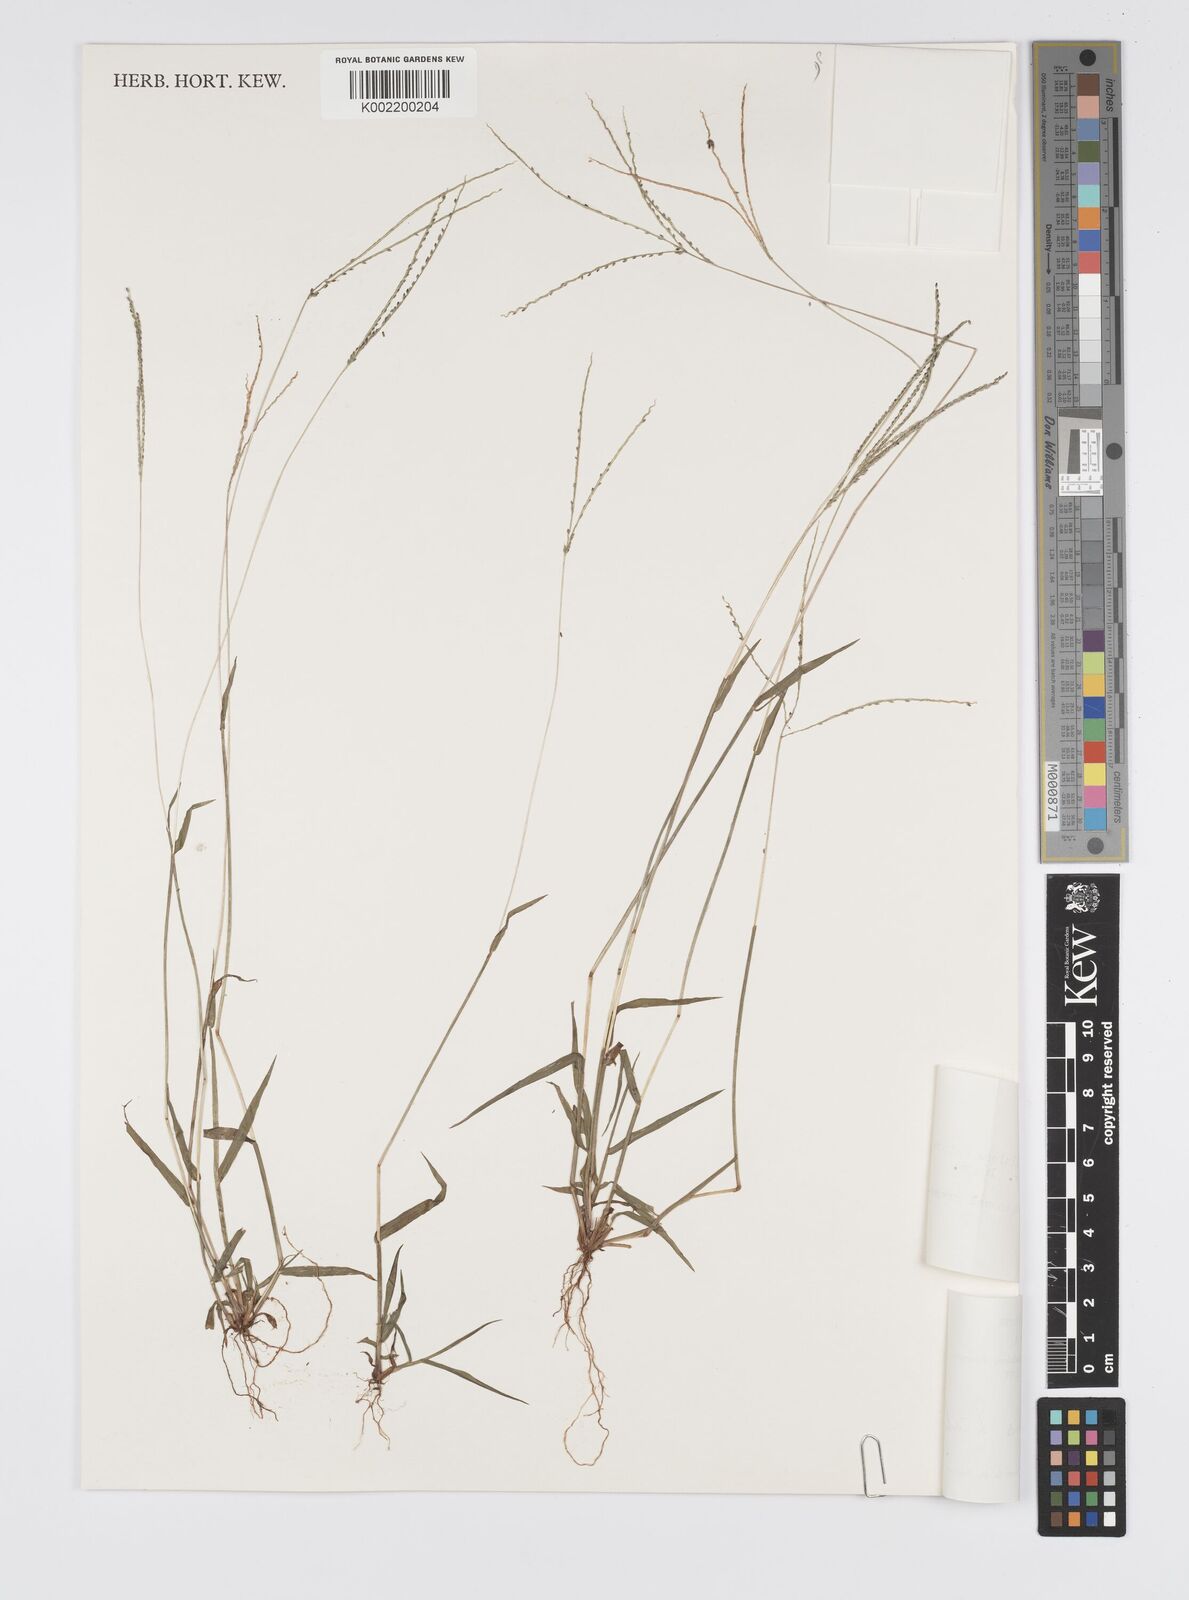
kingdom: Plantae
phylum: Tracheophyta
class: Liliopsida
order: Poales
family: Poaceae
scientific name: Poaceae
